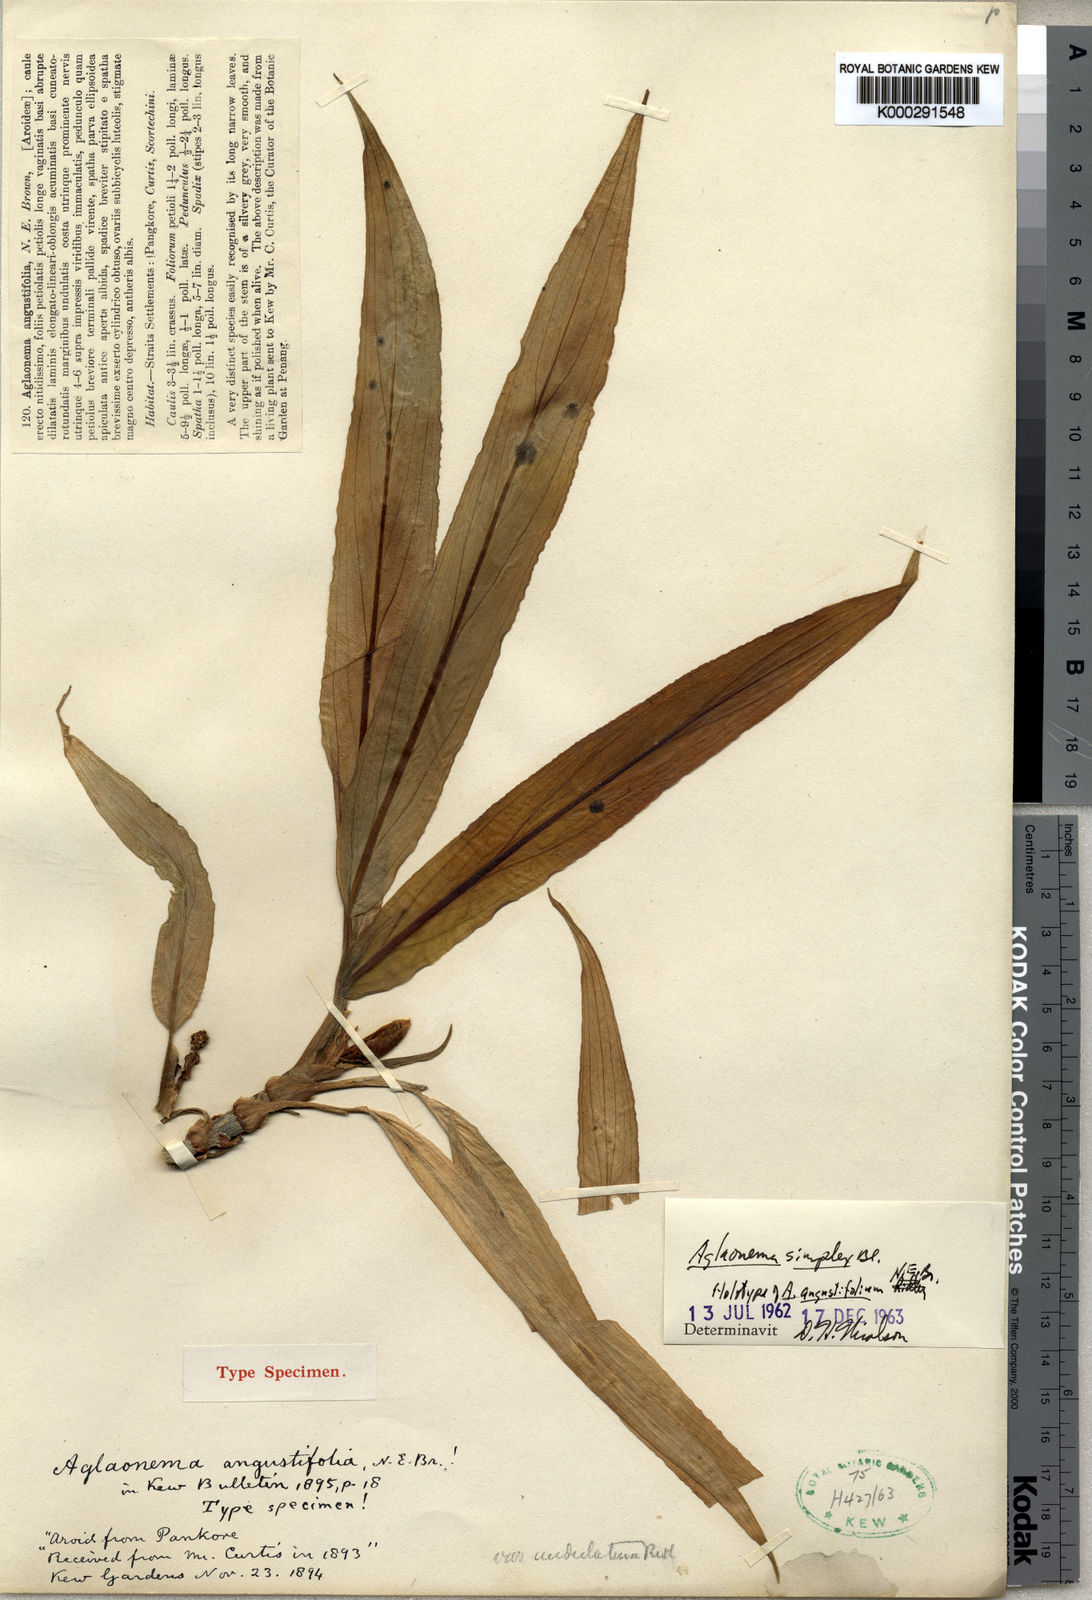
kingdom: Plantae
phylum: Tracheophyta
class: Liliopsida
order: Alismatales
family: Araceae
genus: Aglaonema
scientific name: Aglaonema simplex
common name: Malayan-sword
